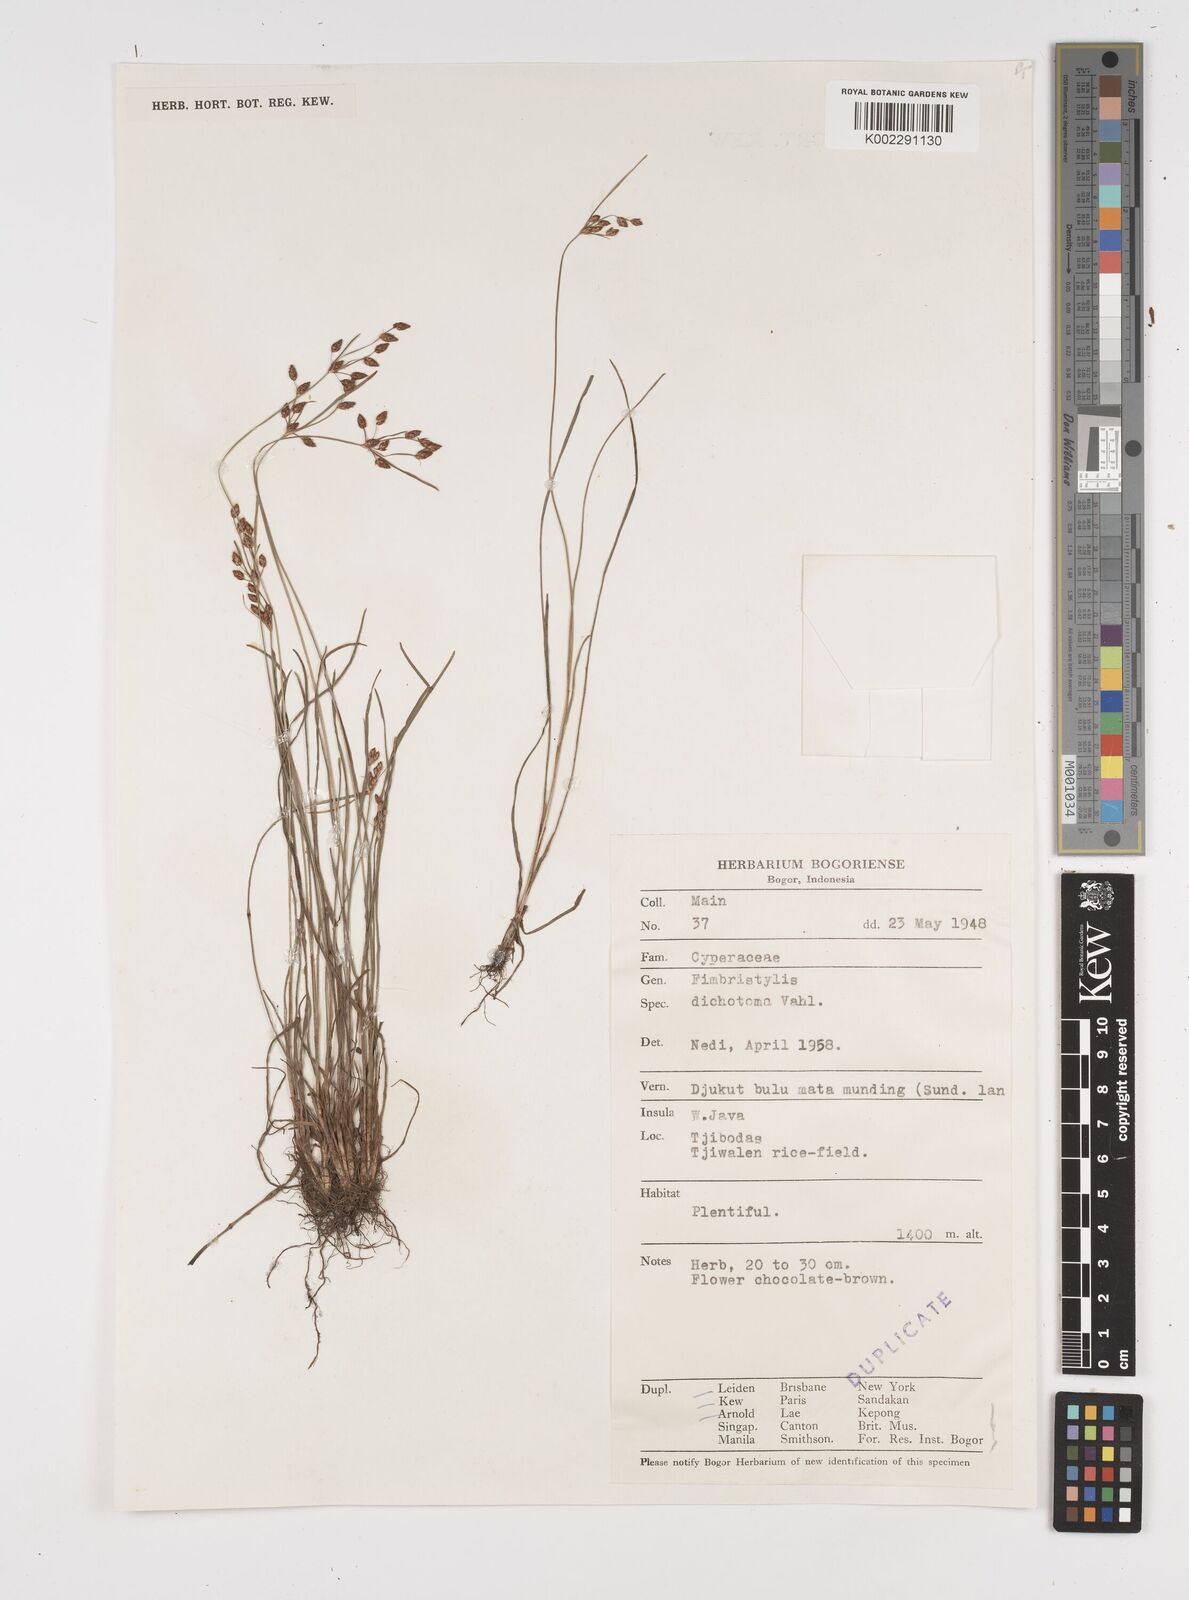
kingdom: Plantae
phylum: Tracheophyta
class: Liliopsida
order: Poales
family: Cyperaceae
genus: Fimbristylis
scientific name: Fimbristylis dichotoma
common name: Forked fimbry
